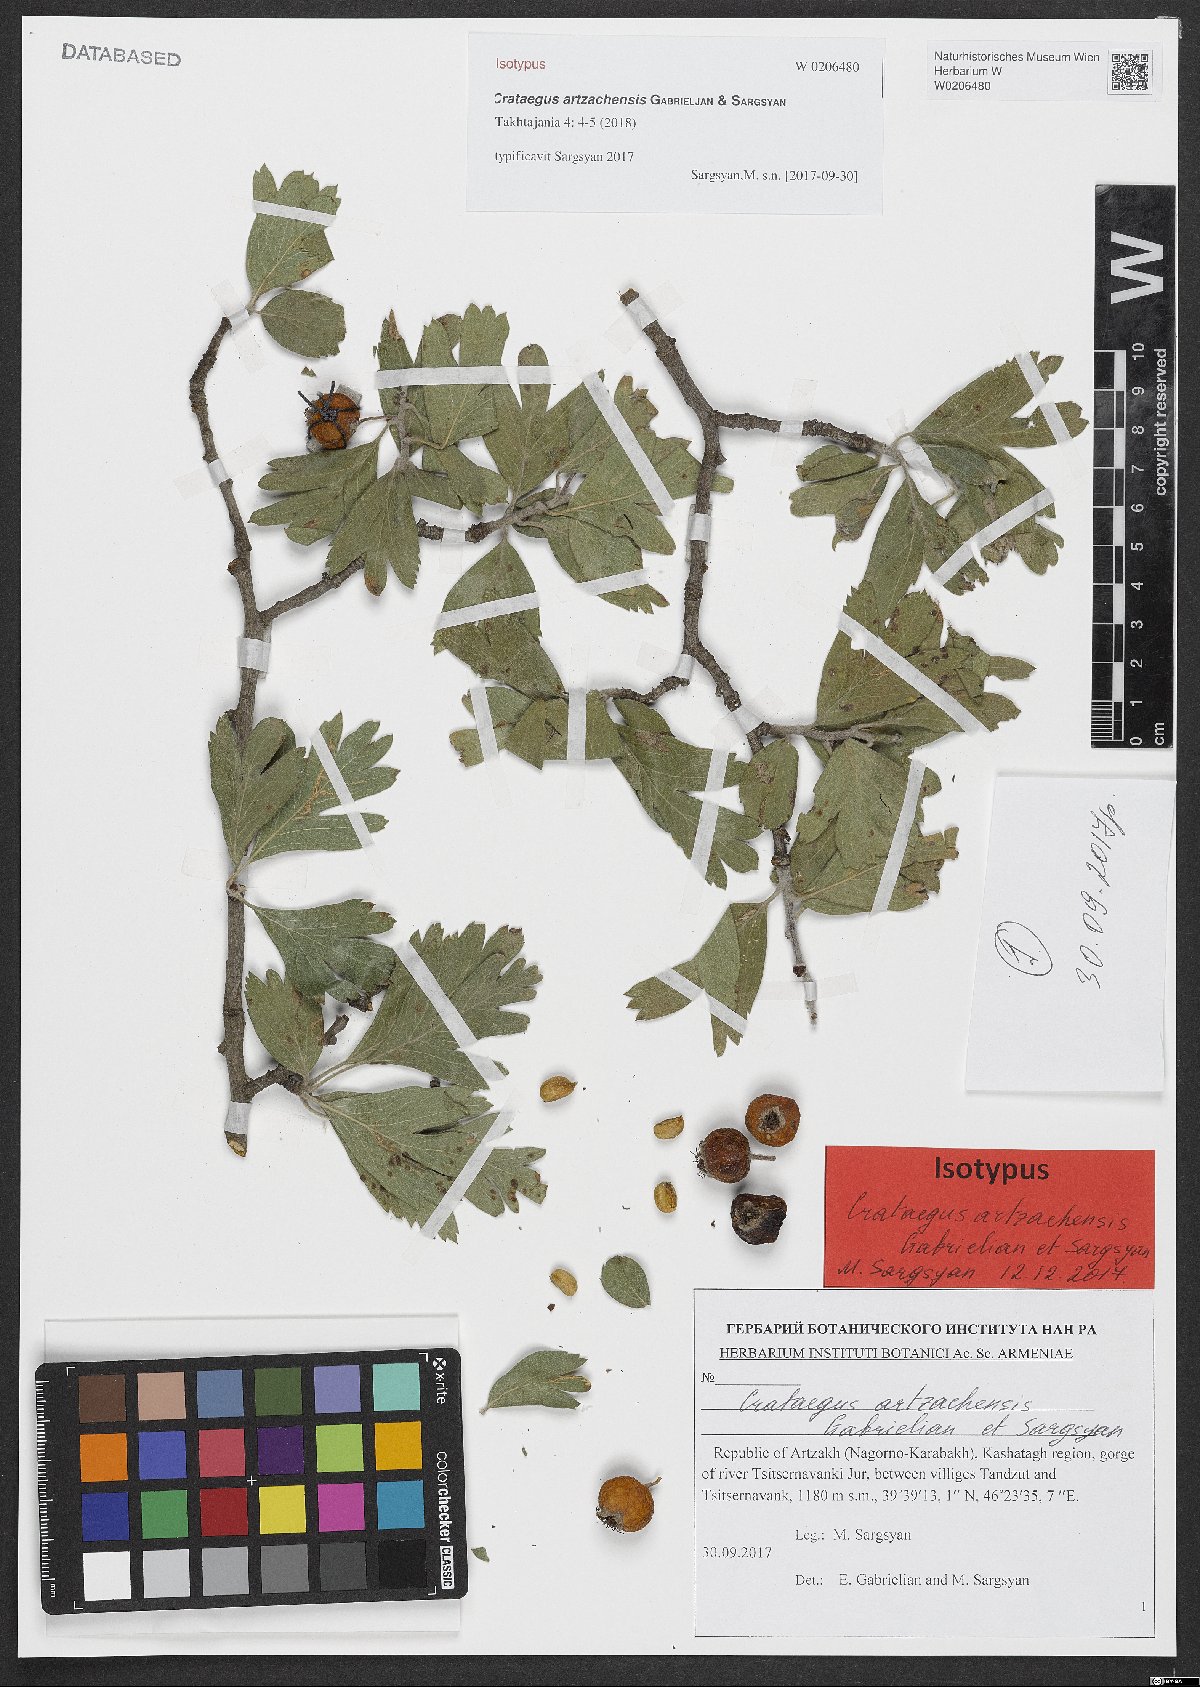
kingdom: Plantae
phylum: Tracheophyta
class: Magnoliopsida
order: Rosales
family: Rosaceae
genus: Crataegus
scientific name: Crataegus
